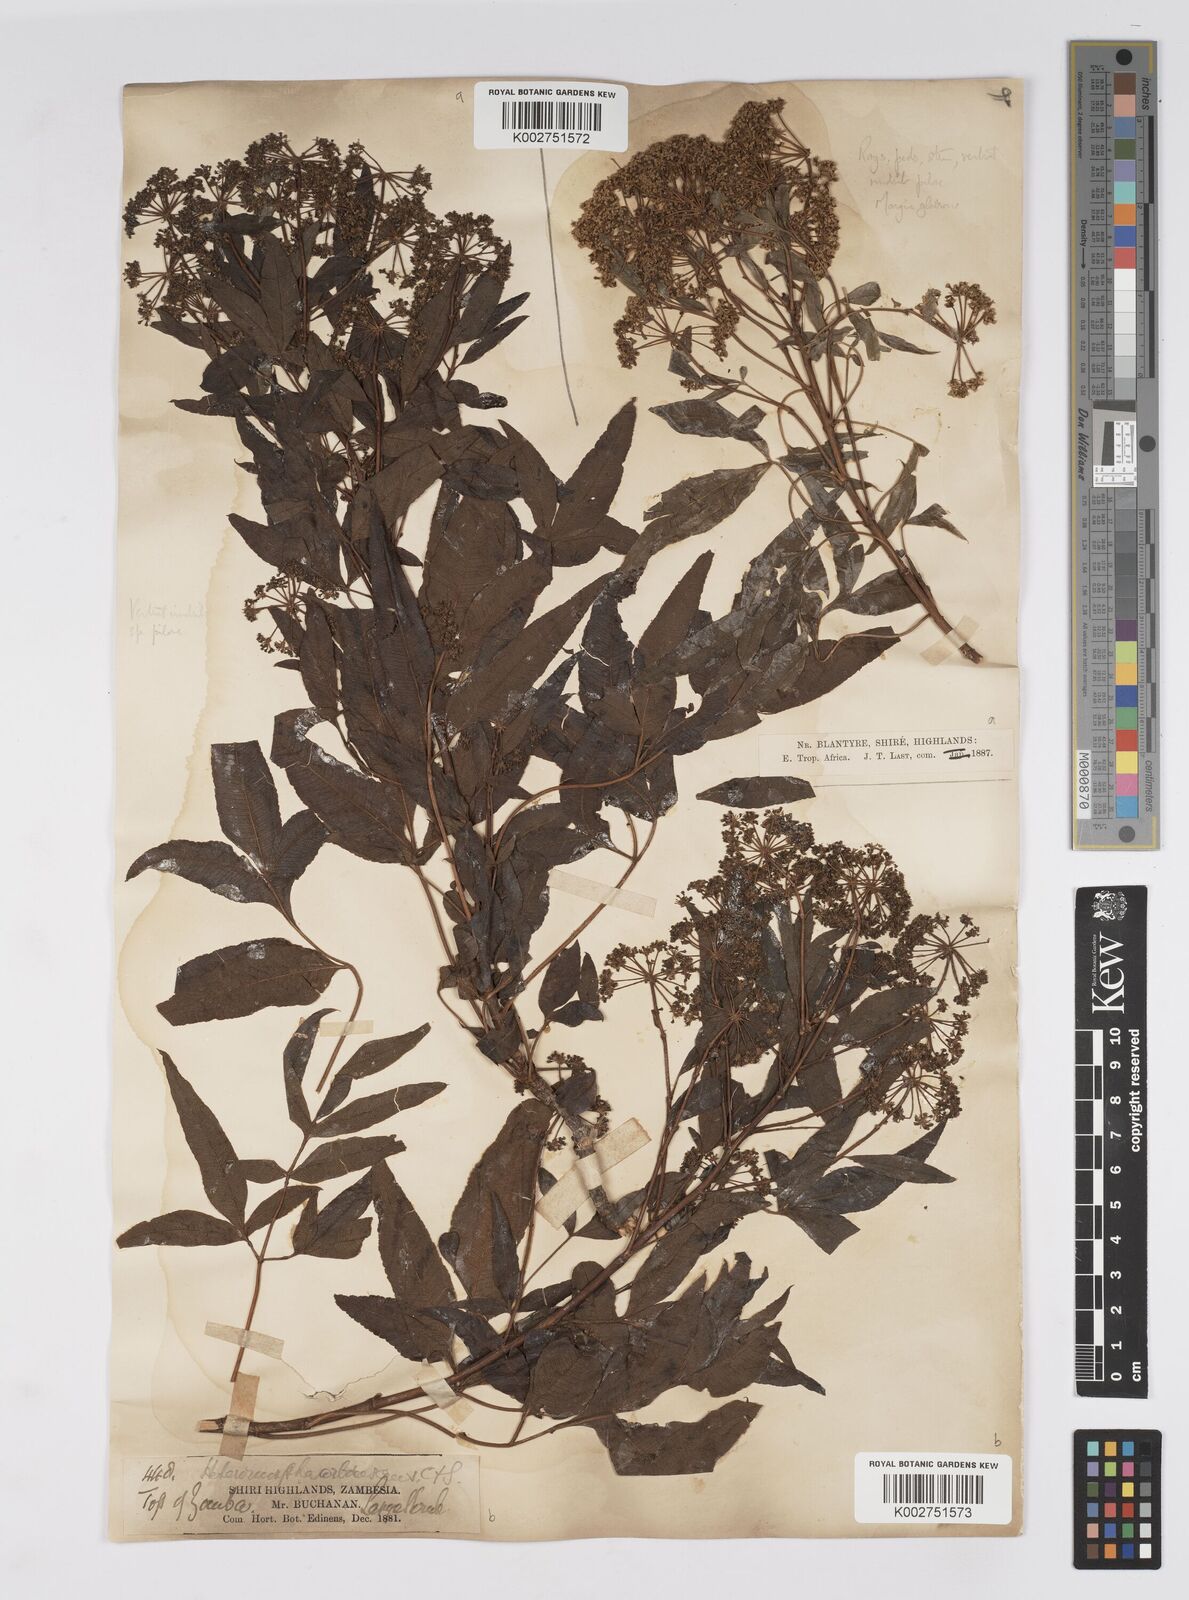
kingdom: Plantae
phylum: Tracheophyta
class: Magnoliopsida
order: Apiales
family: Apiaceae
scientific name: Apiaceae
